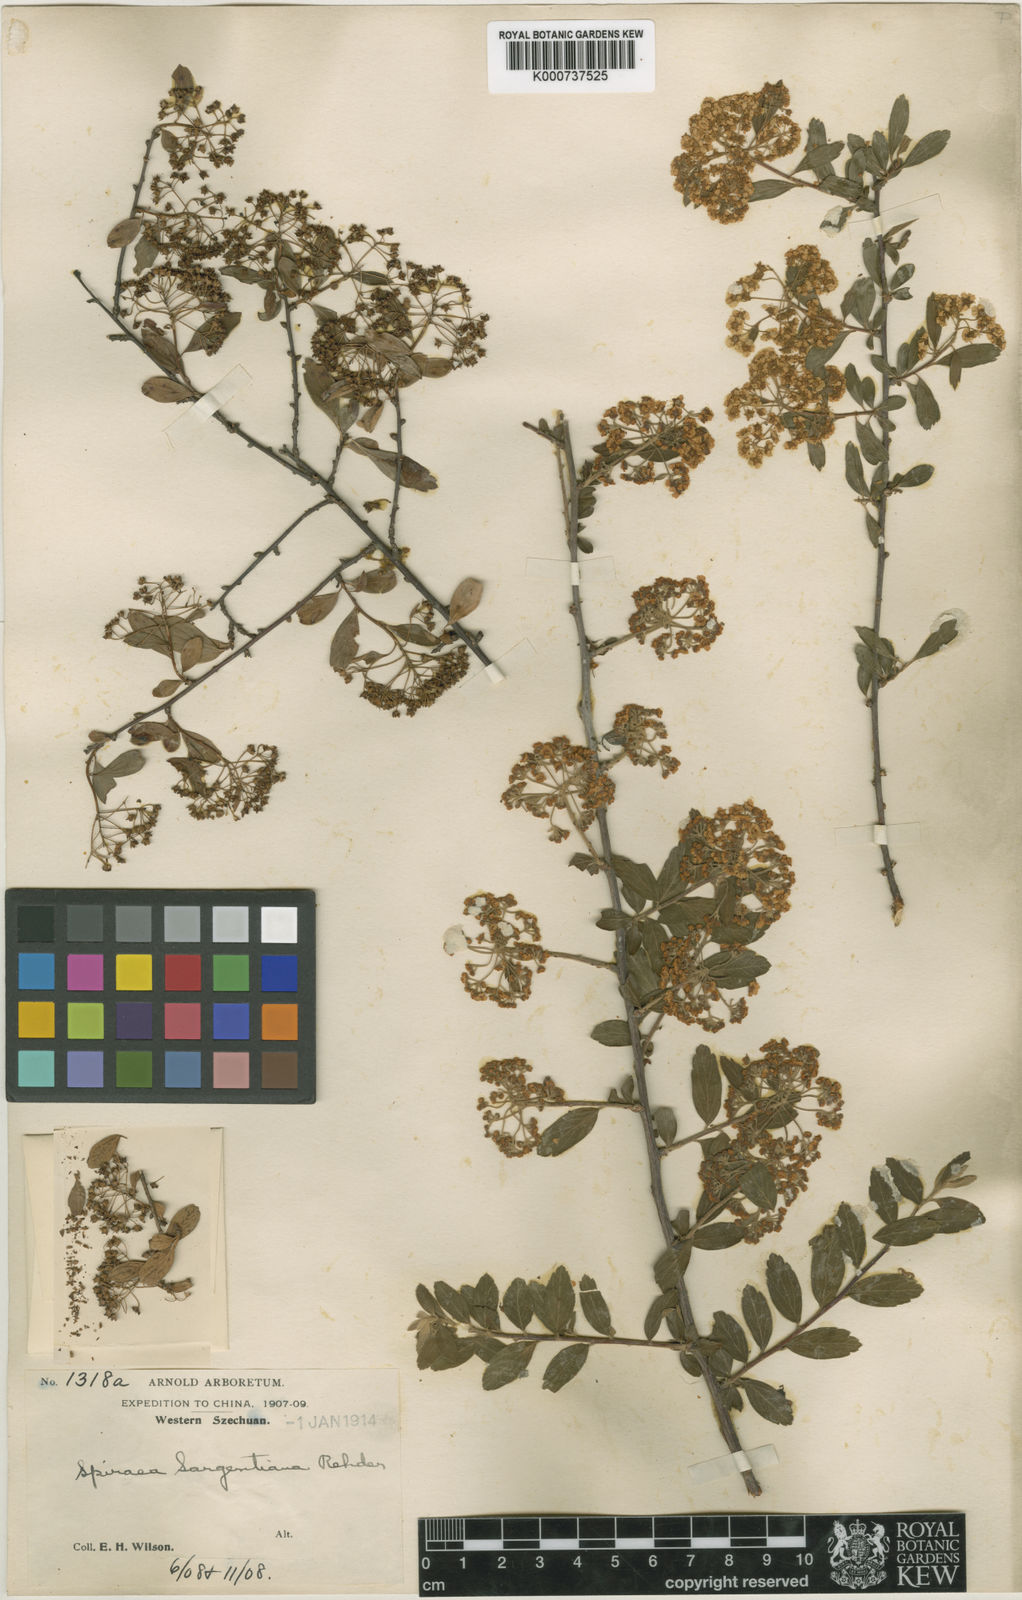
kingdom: Plantae
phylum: Tracheophyta
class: Magnoliopsida
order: Rosales
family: Rosaceae
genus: Spiraea
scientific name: Spiraea sargentiana
